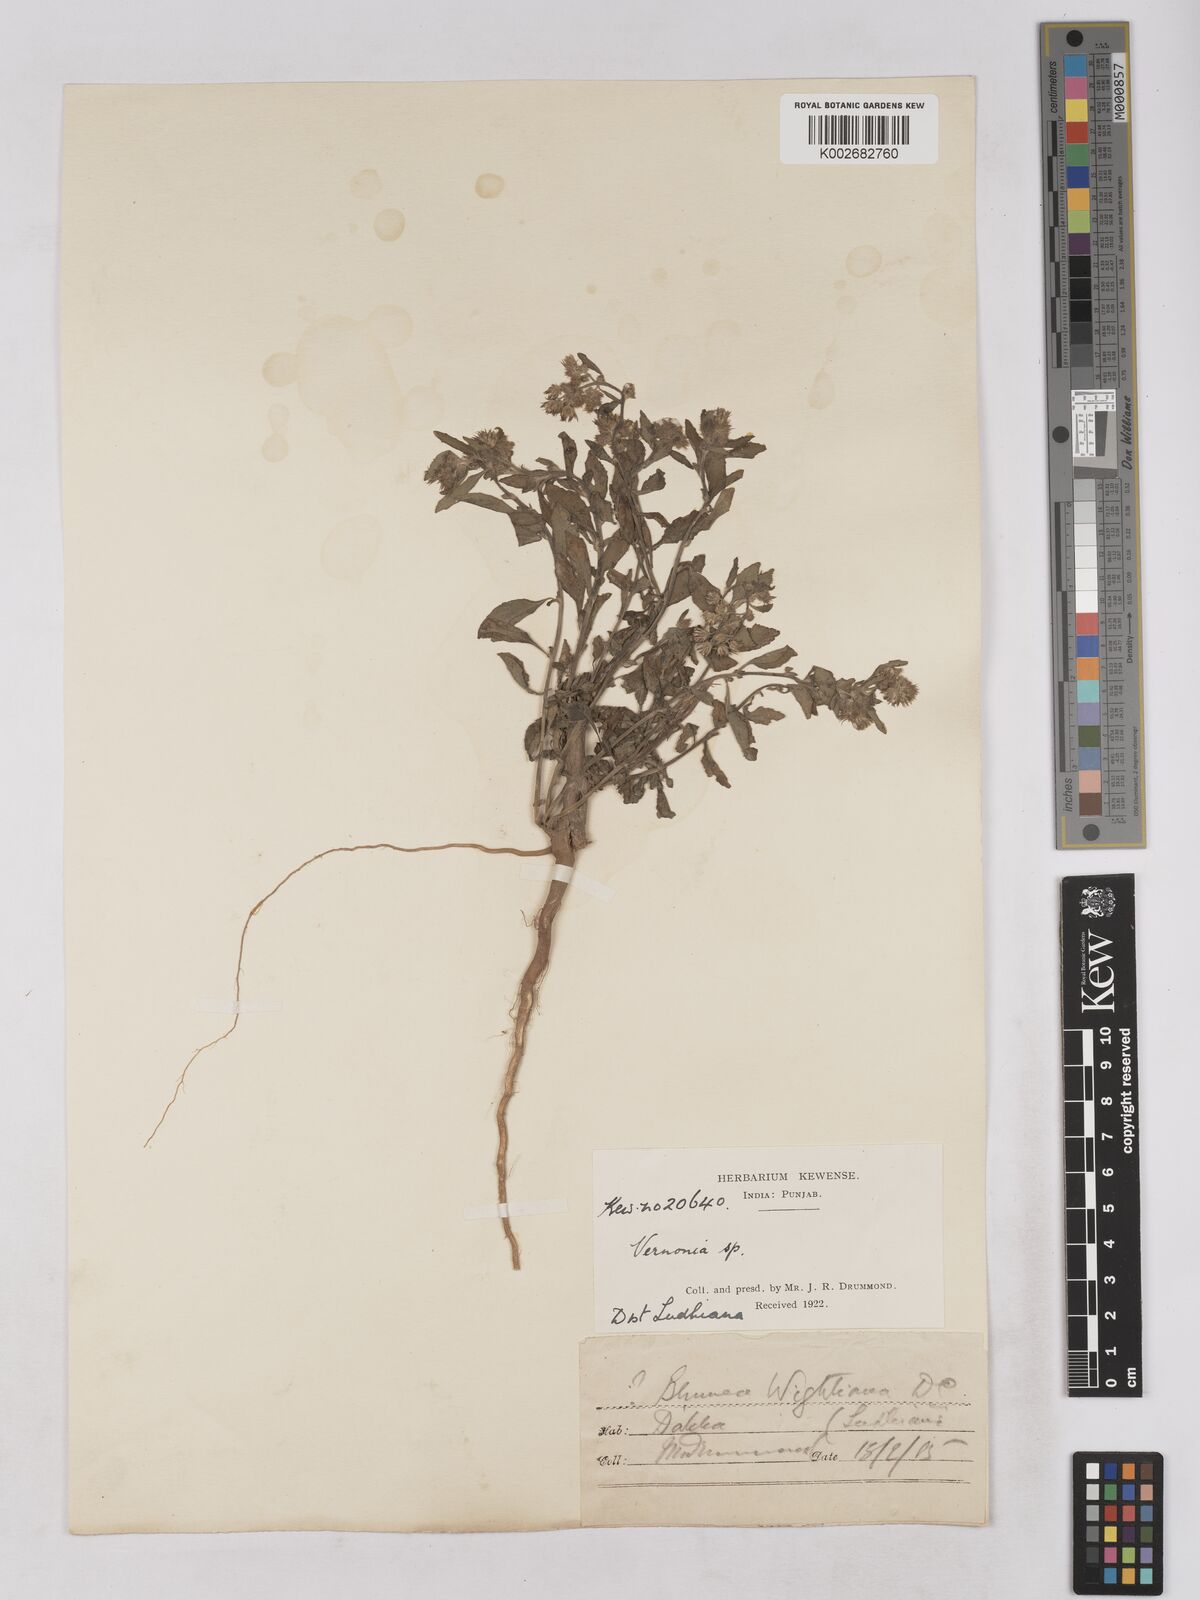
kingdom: Plantae
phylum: Tracheophyta
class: Magnoliopsida
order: Asterales
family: Asteraceae
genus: Cyanthillium
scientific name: Cyanthillium cinereum
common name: Little ironweed
